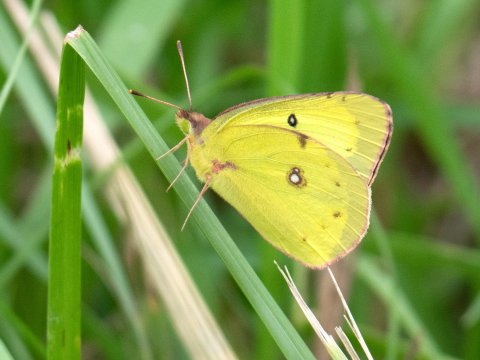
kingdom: Animalia
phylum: Arthropoda
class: Insecta
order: Lepidoptera
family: Pieridae
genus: Colias
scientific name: Colias philodice
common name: Clouded Sulphur
